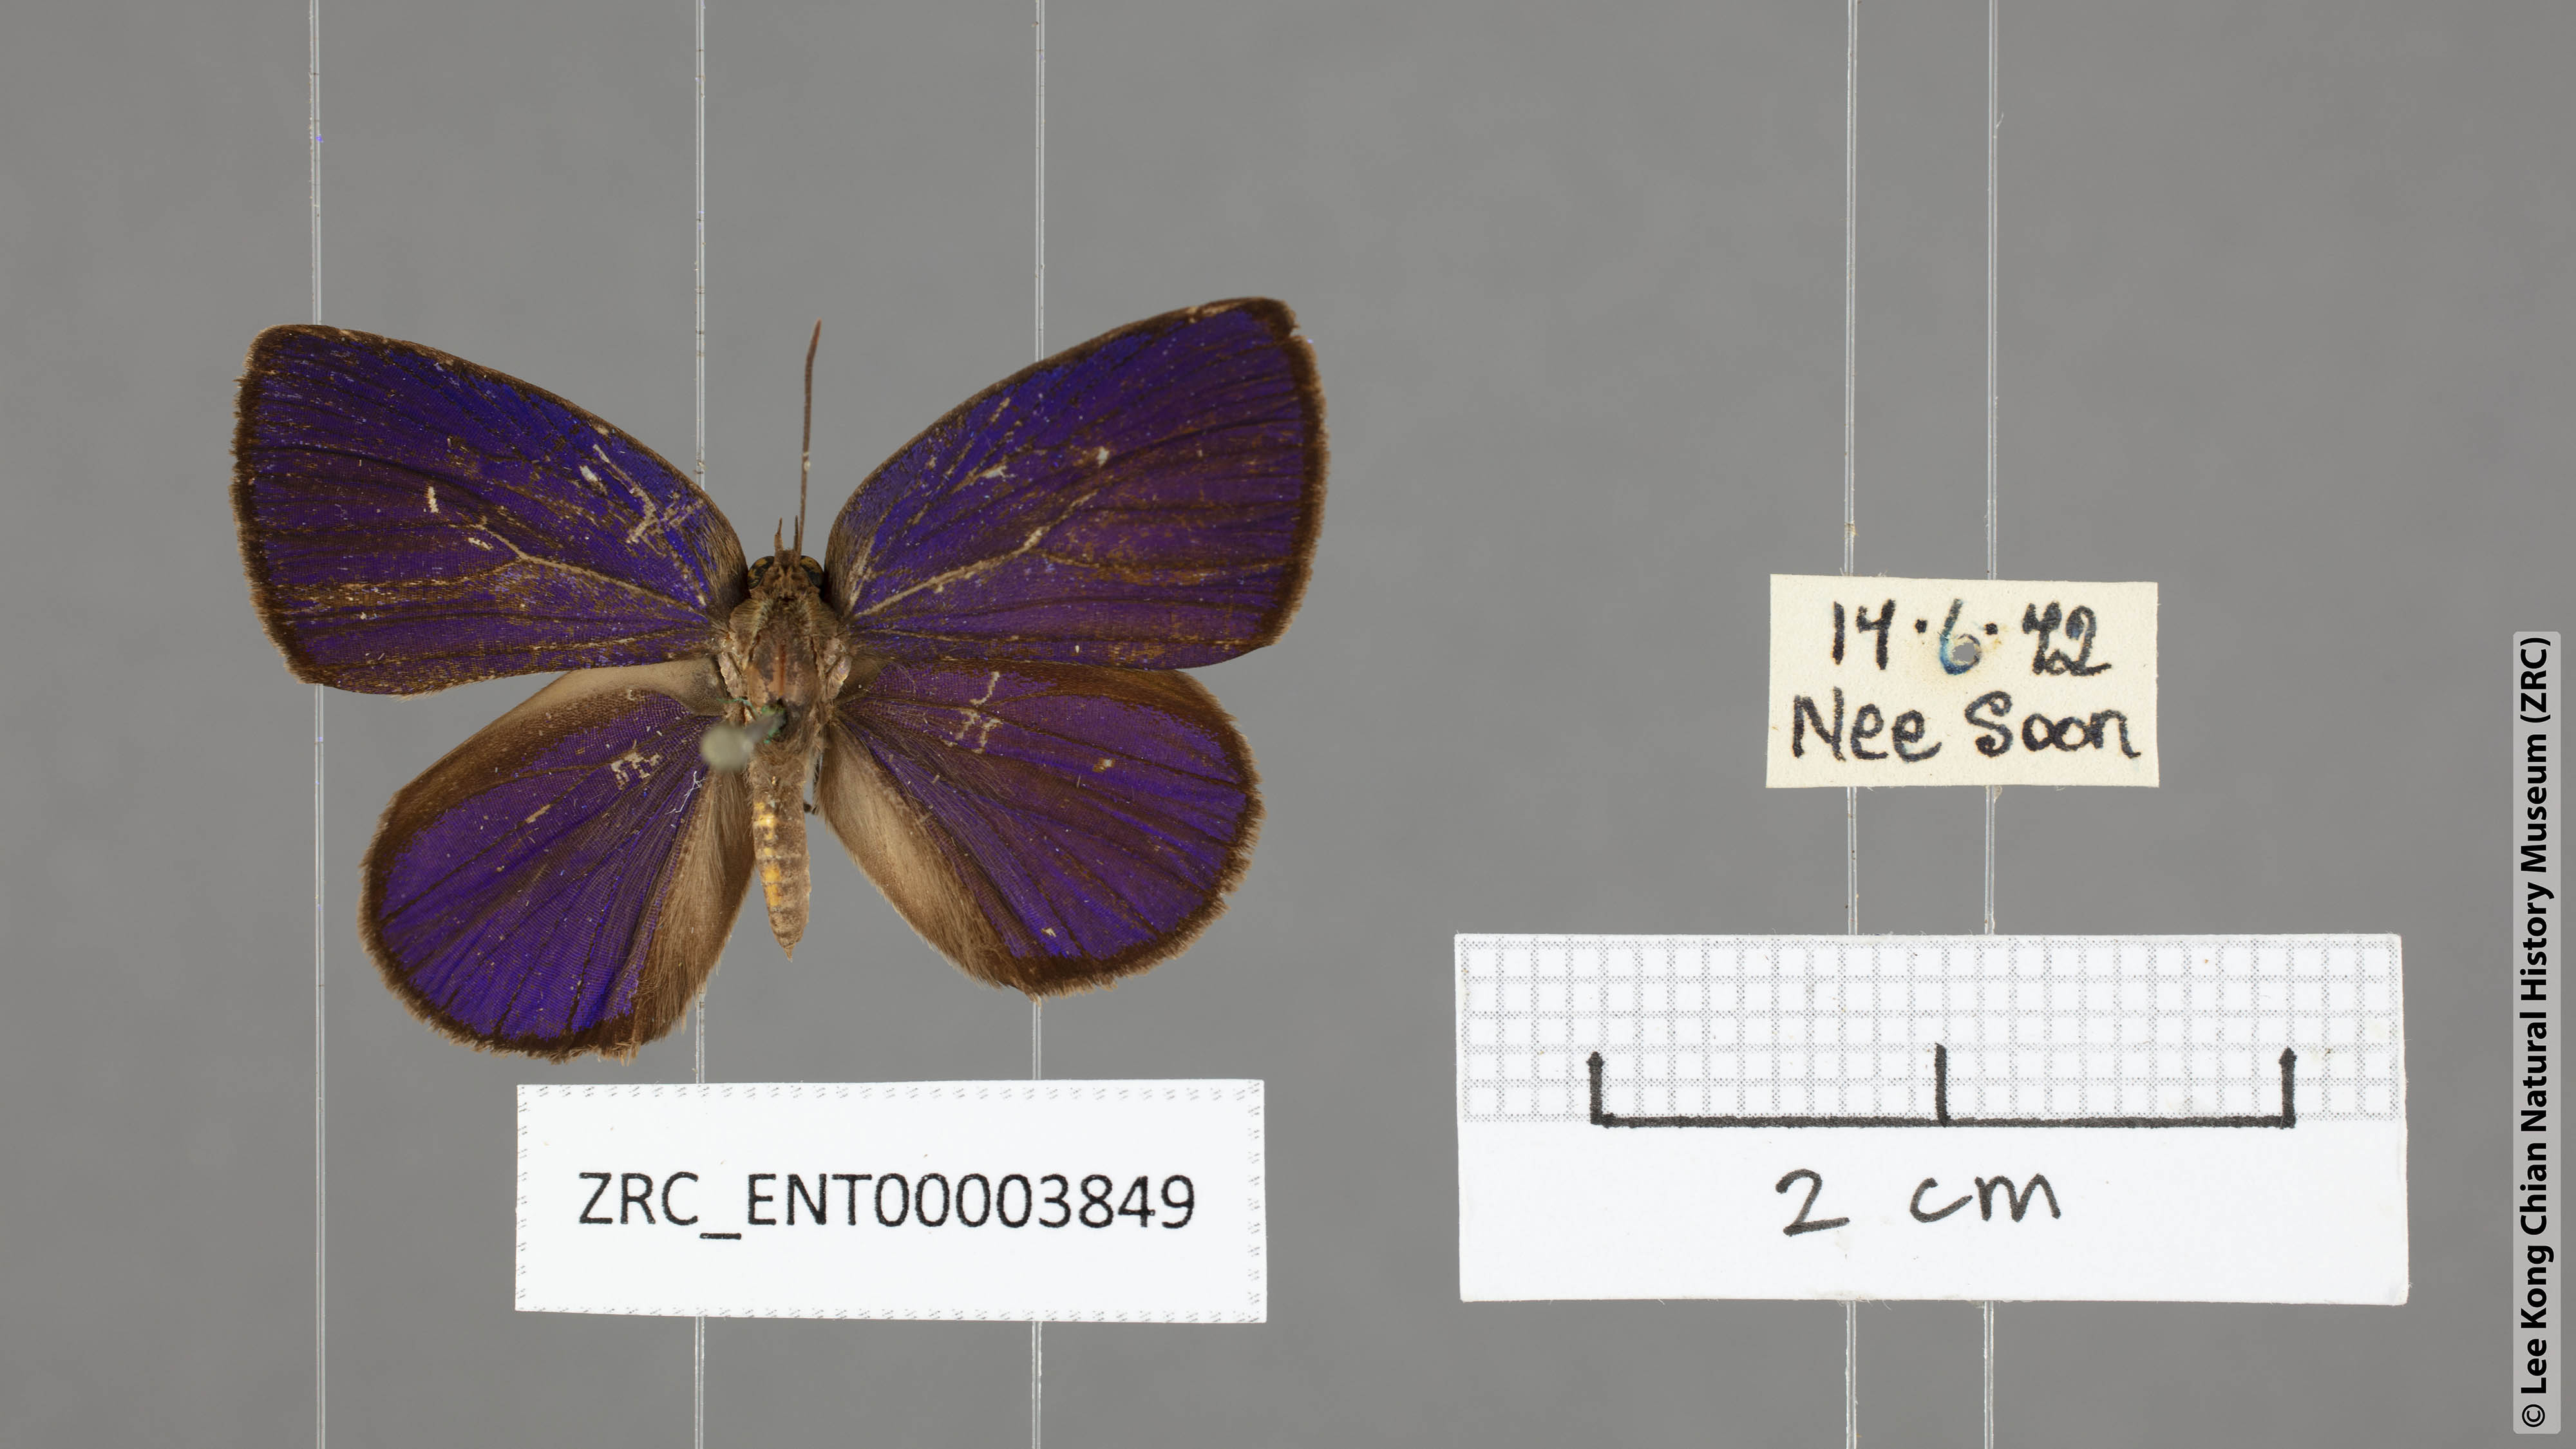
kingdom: Animalia
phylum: Arthropoda
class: Insecta
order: Lepidoptera
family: Lycaenidae
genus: Arhopala
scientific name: Arhopala antimuta
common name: Small tailless oakblue
